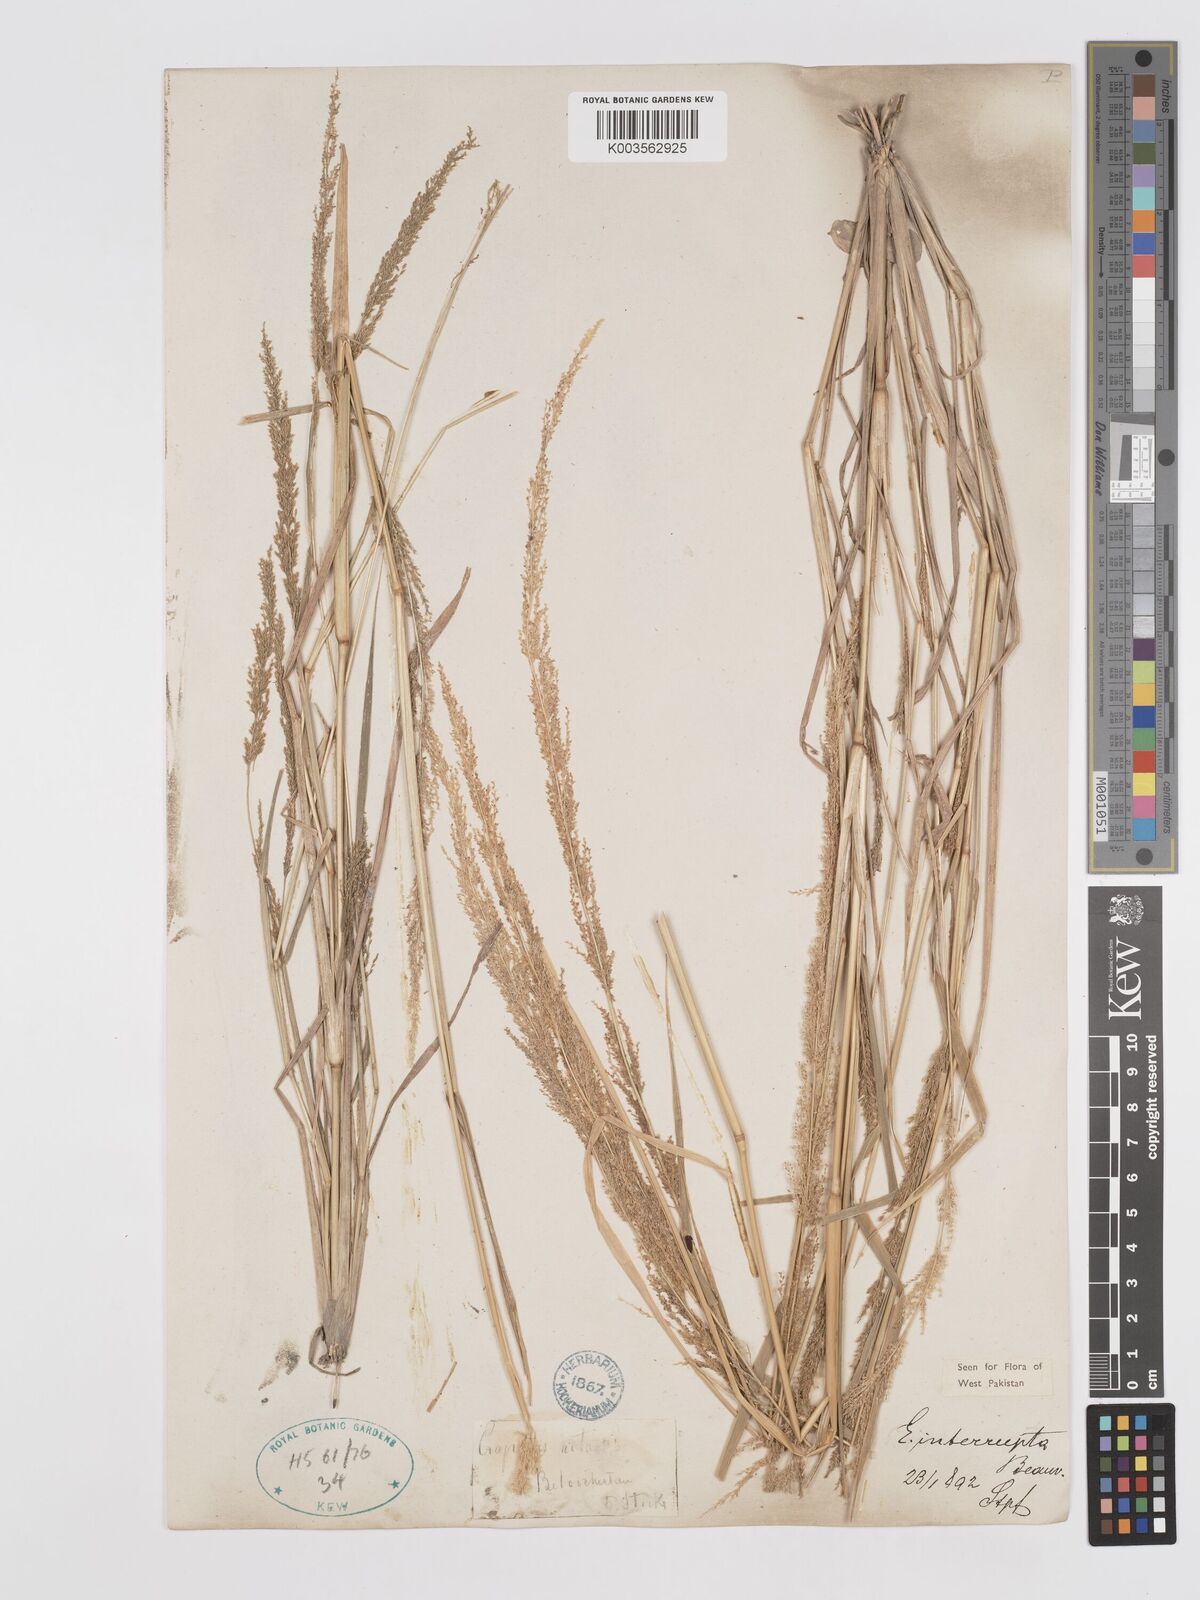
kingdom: Plantae
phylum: Tracheophyta
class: Liliopsida
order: Poales
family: Poaceae
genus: Eragrostis
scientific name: Eragrostis japonica
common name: Pond lovegrass
